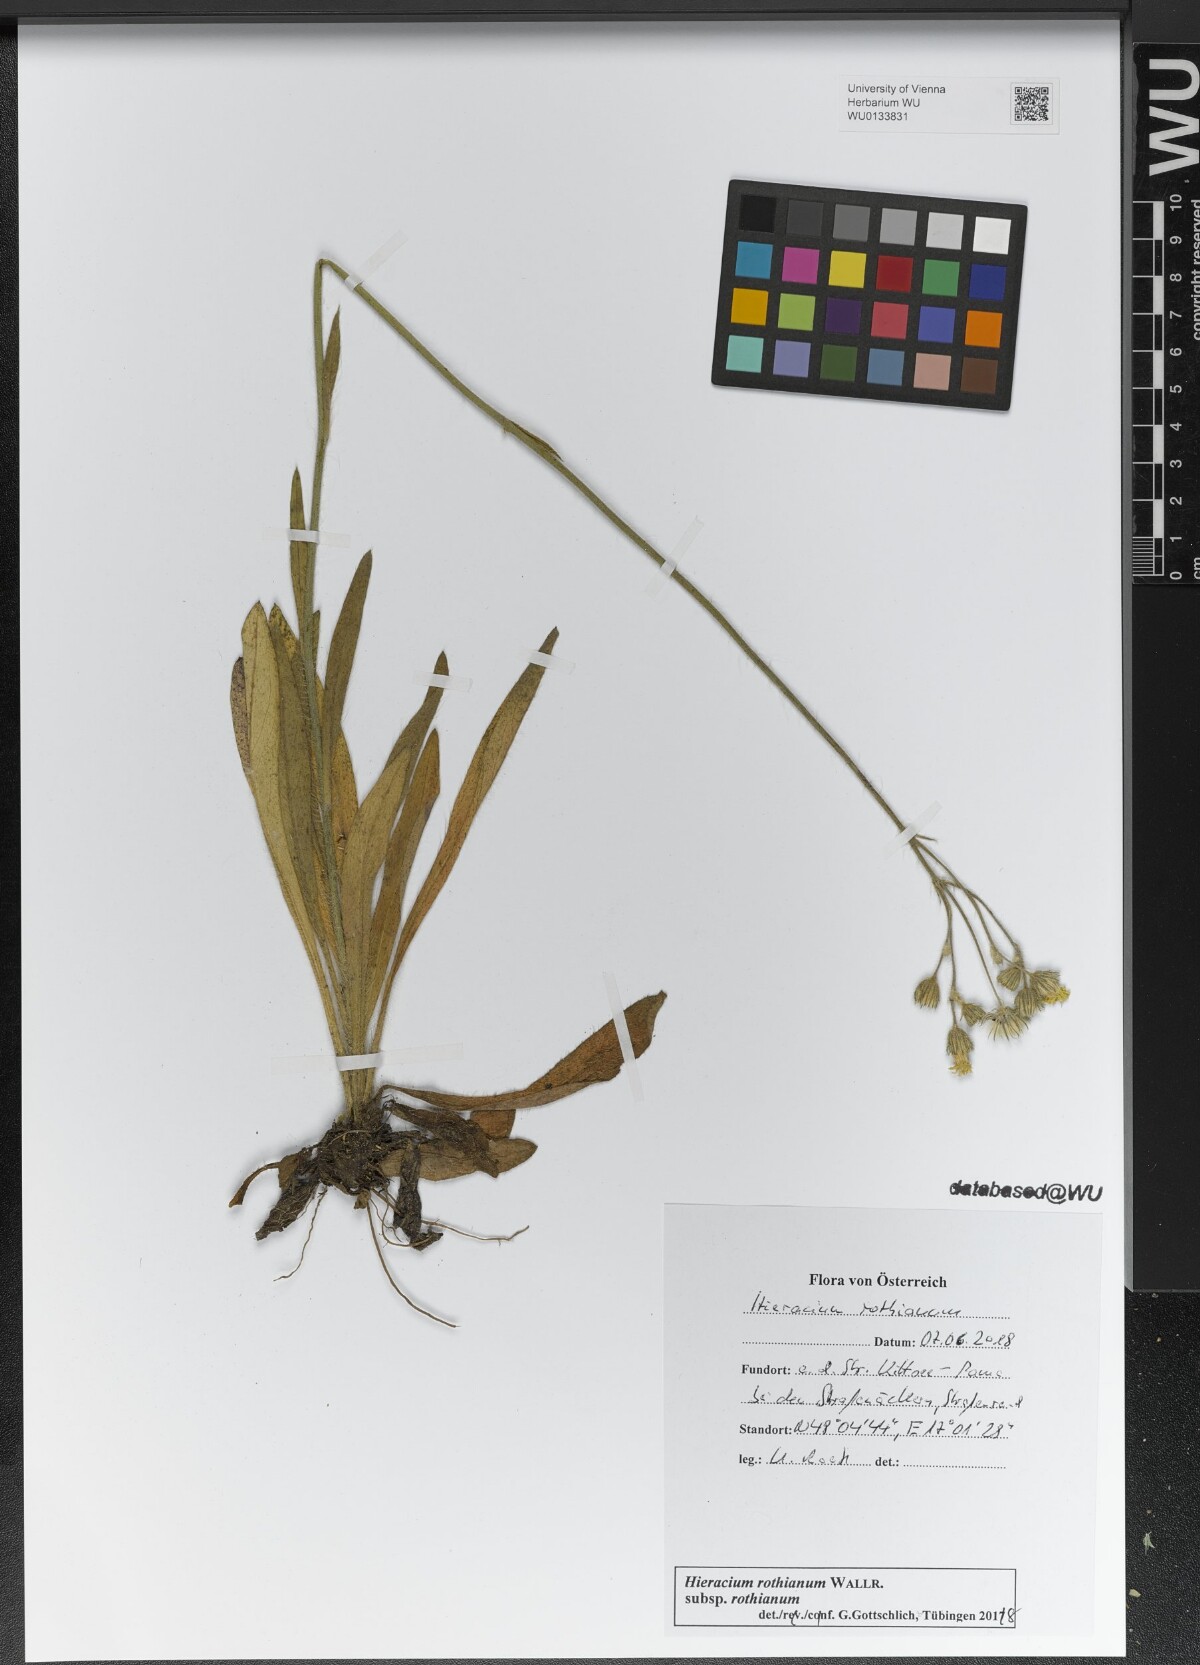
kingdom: Plantae
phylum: Tracheophyta
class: Magnoliopsida
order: Asterales
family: Asteraceae
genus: Pilosella
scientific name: Pilosella rothiana
